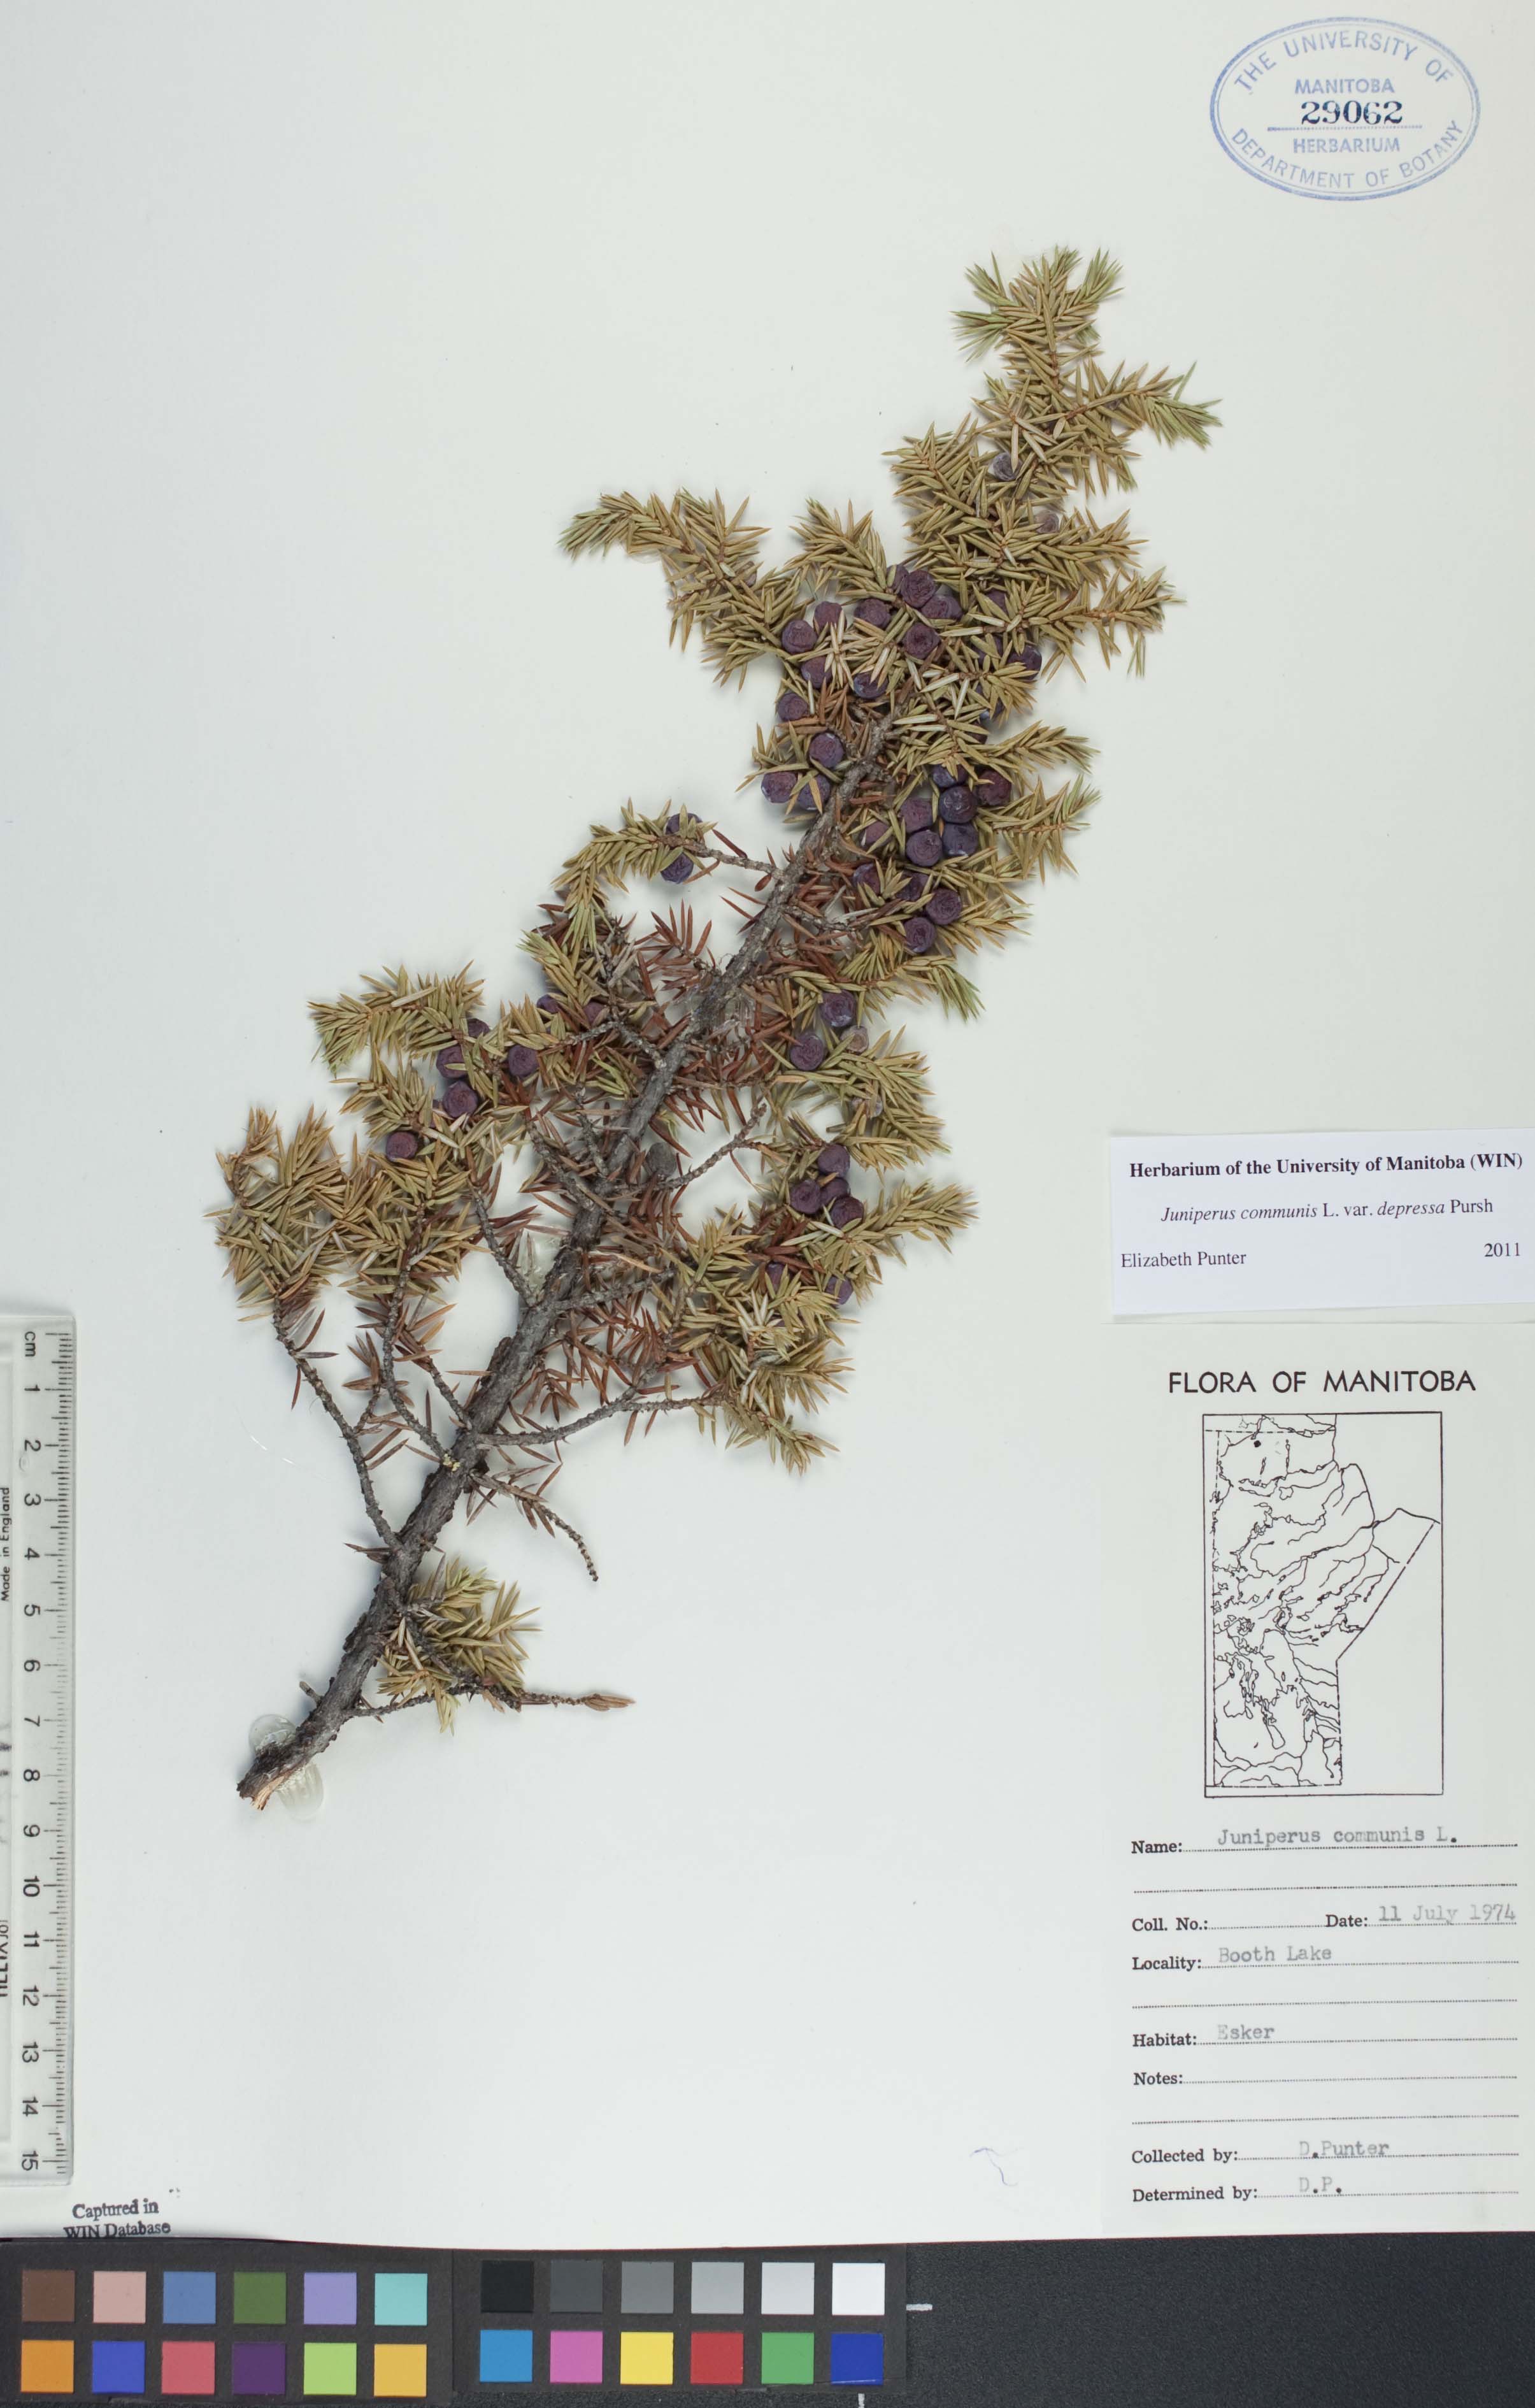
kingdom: Plantae
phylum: Tracheophyta
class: Pinopsida
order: Pinales
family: Cupressaceae
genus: Juniperus
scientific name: Juniperus communis
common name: Common juniper
